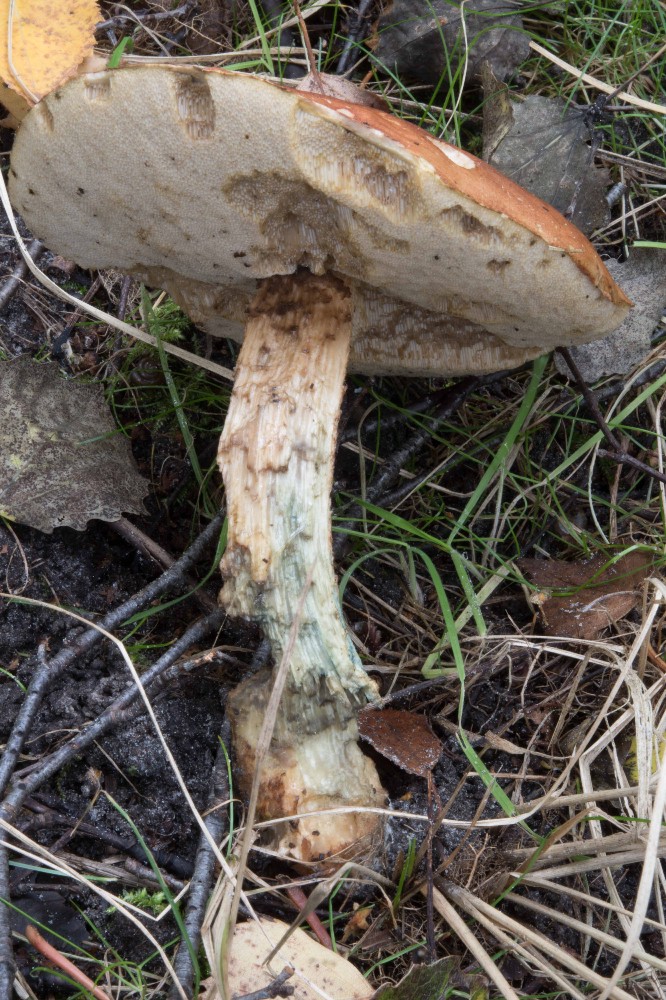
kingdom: Fungi
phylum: Basidiomycota
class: Agaricomycetes
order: Boletales
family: Boletaceae
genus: Leccinum
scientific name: Leccinum albostipitatum
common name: aspe-skælrørhat
